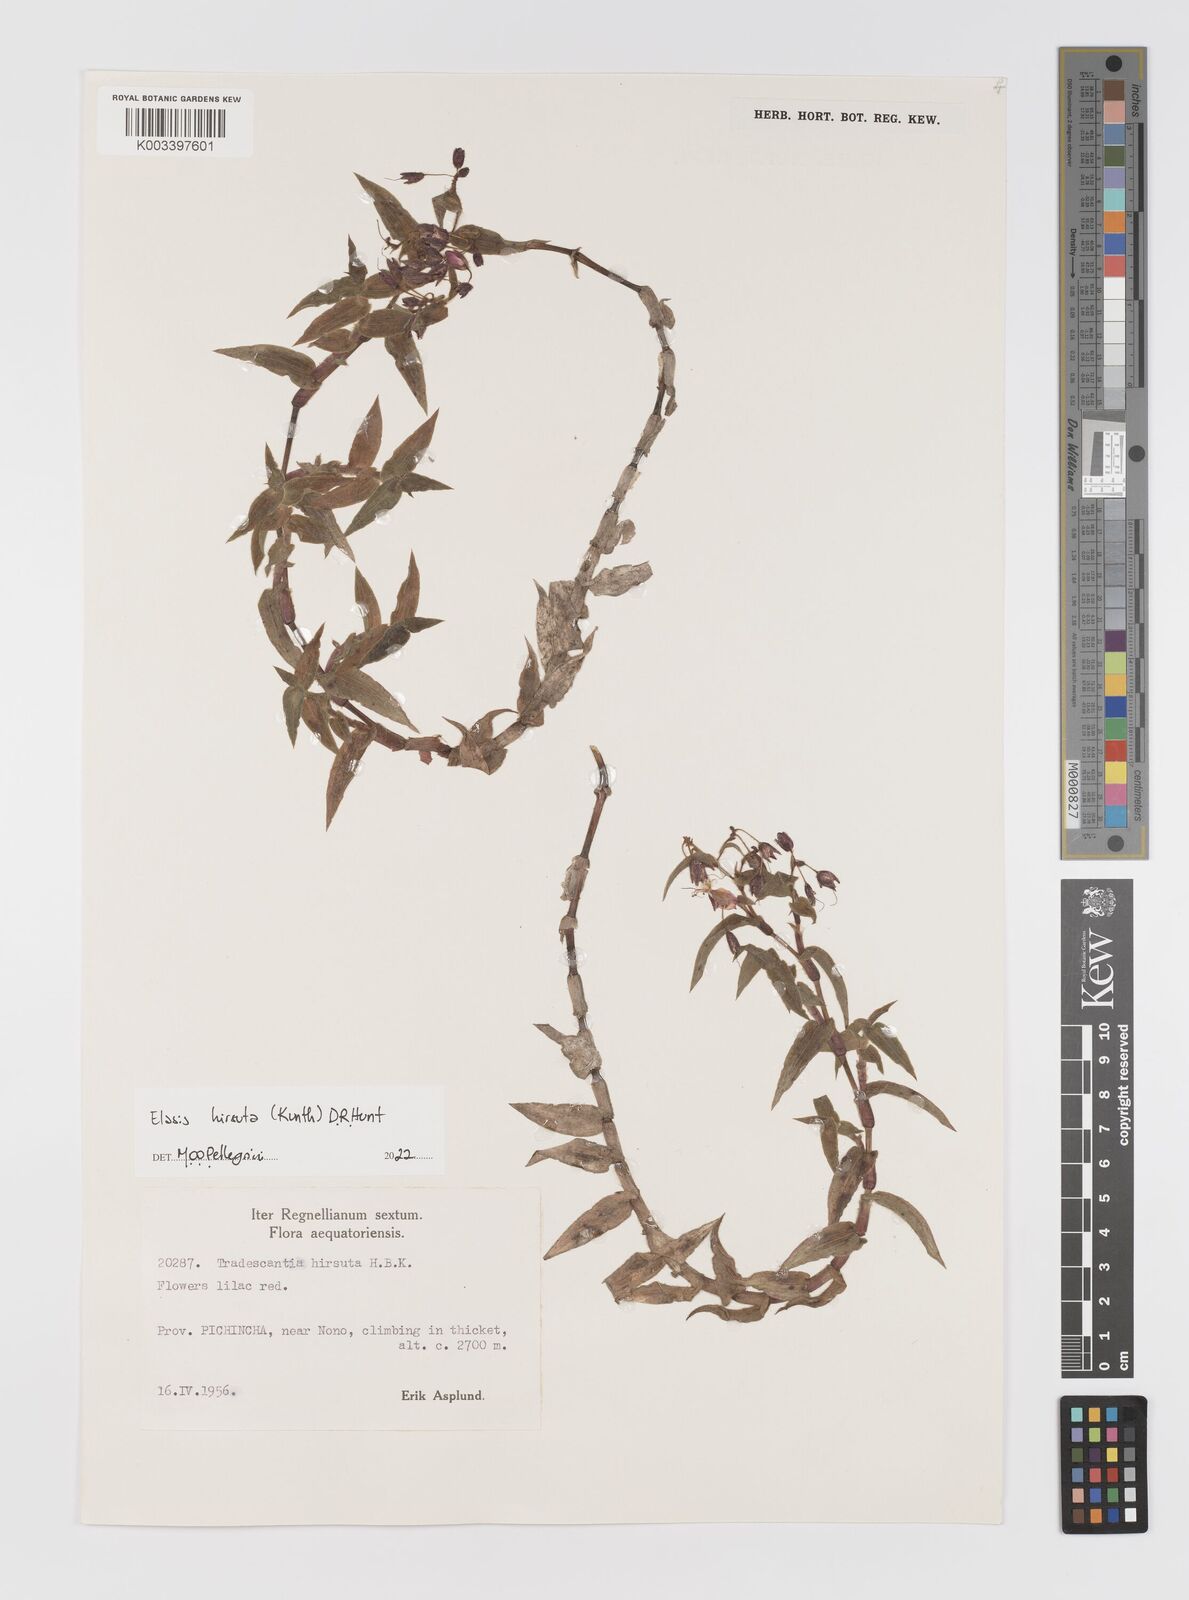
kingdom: Plantae
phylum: Tracheophyta
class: Liliopsida
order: Commelinales
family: Commelinaceae
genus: Elasis
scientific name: Elasis hirsuta
